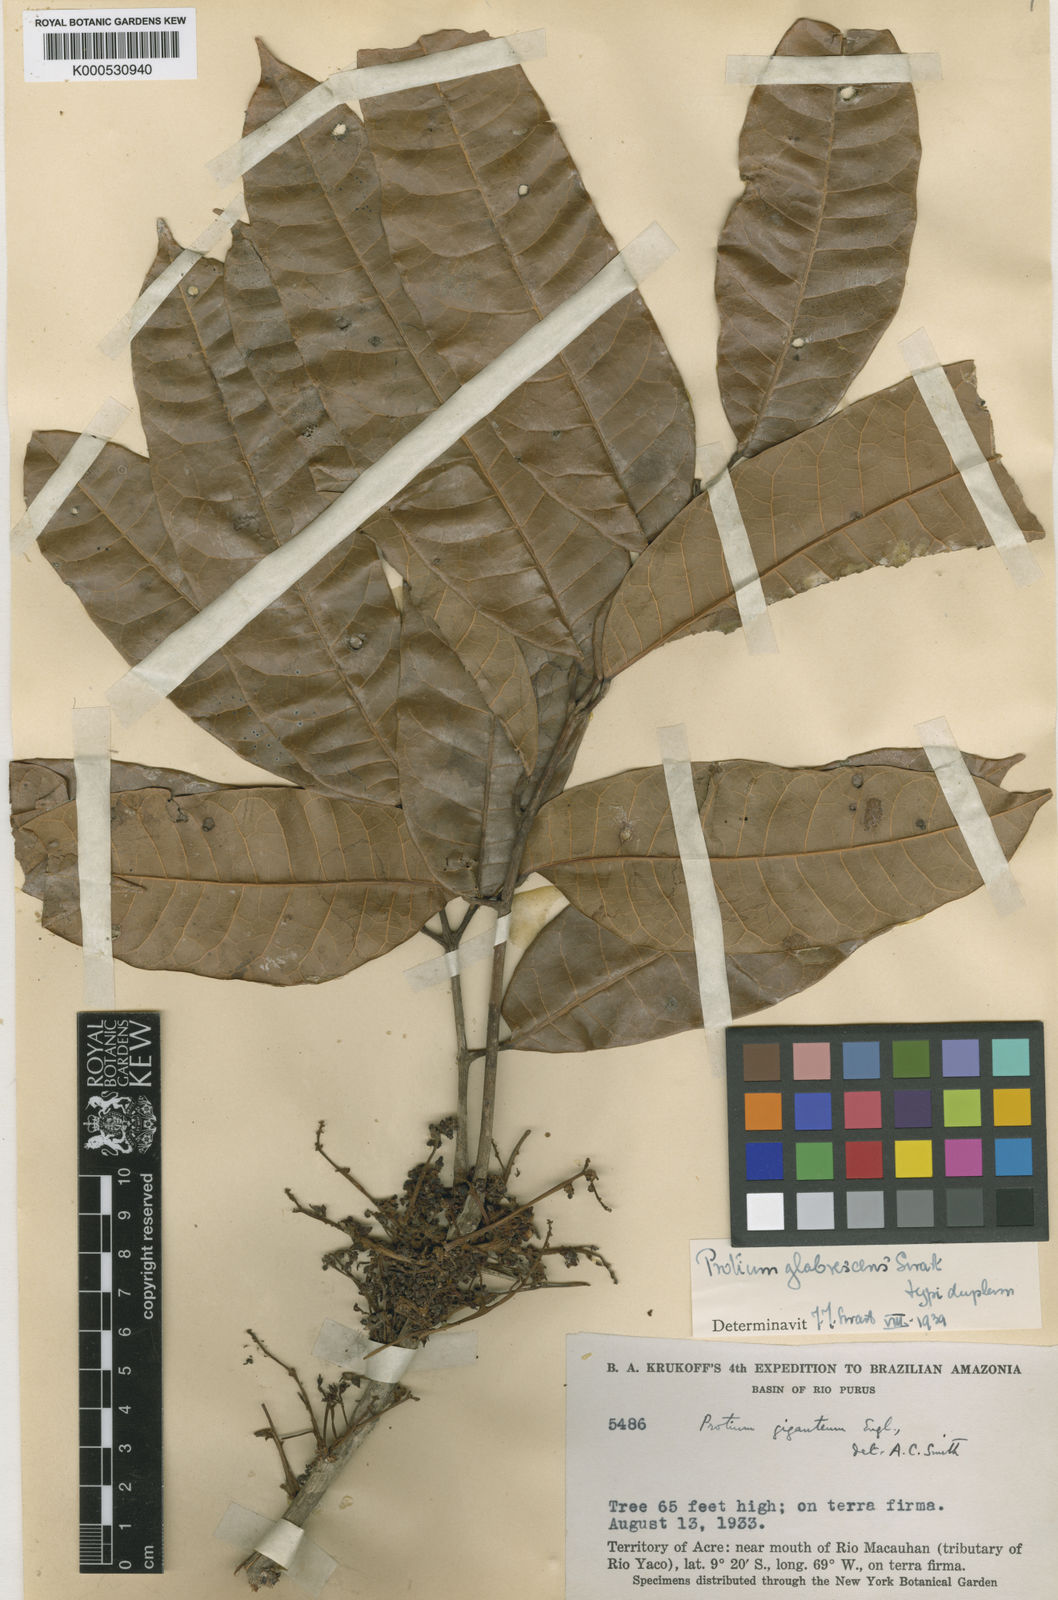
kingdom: Plantae
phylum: Tracheophyta
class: Magnoliopsida
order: Sapindales
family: Burseraceae
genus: Protium
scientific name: Protium glabrescens
